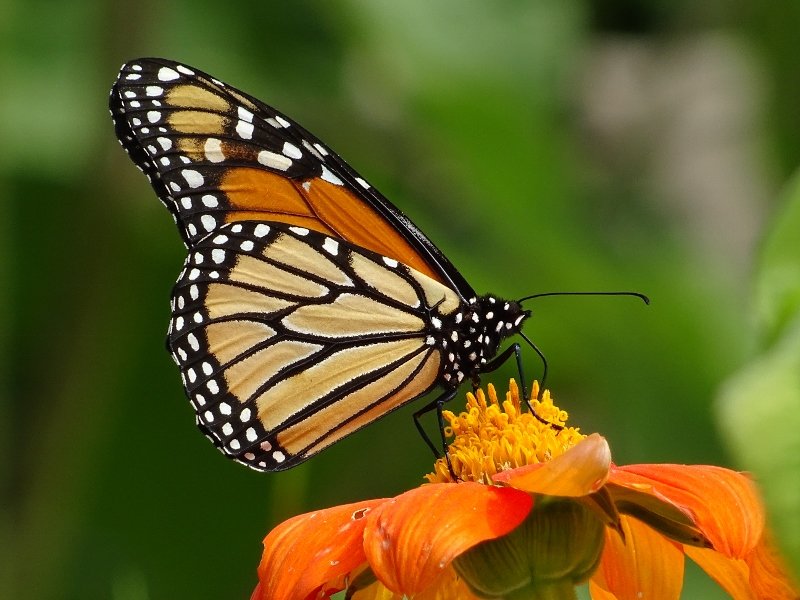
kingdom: Animalia
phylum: Arthropoda
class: Insecta
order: Lepidoptera
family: Nymphalidae
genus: Danaus
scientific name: Danaus plexippus
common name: Monarch
